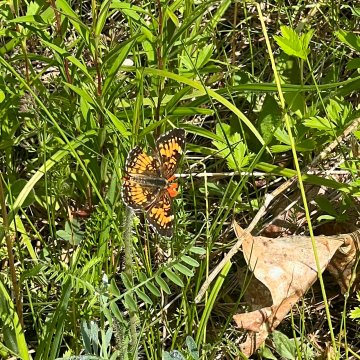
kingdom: Animalia
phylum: Arthropoda
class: Insecta
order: Lepidoptera
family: Nymphalidae
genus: Chlosyne
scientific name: Chlosyne harrisii
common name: Harris's Checkerspot
